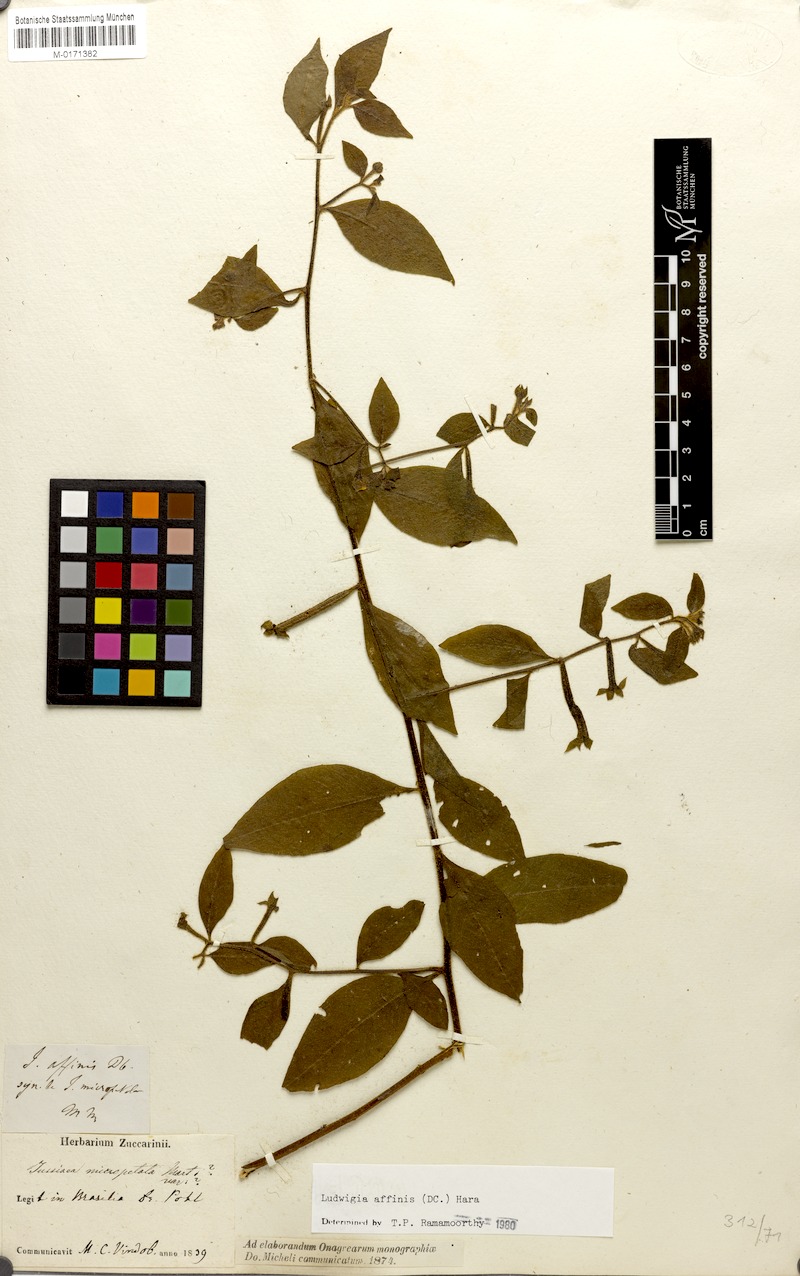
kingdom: Plantae
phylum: Tracheophyta
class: Magnoliopsida
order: Myrtales
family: Onagraceae
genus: Ludwigia
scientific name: Ludwigia affinis
